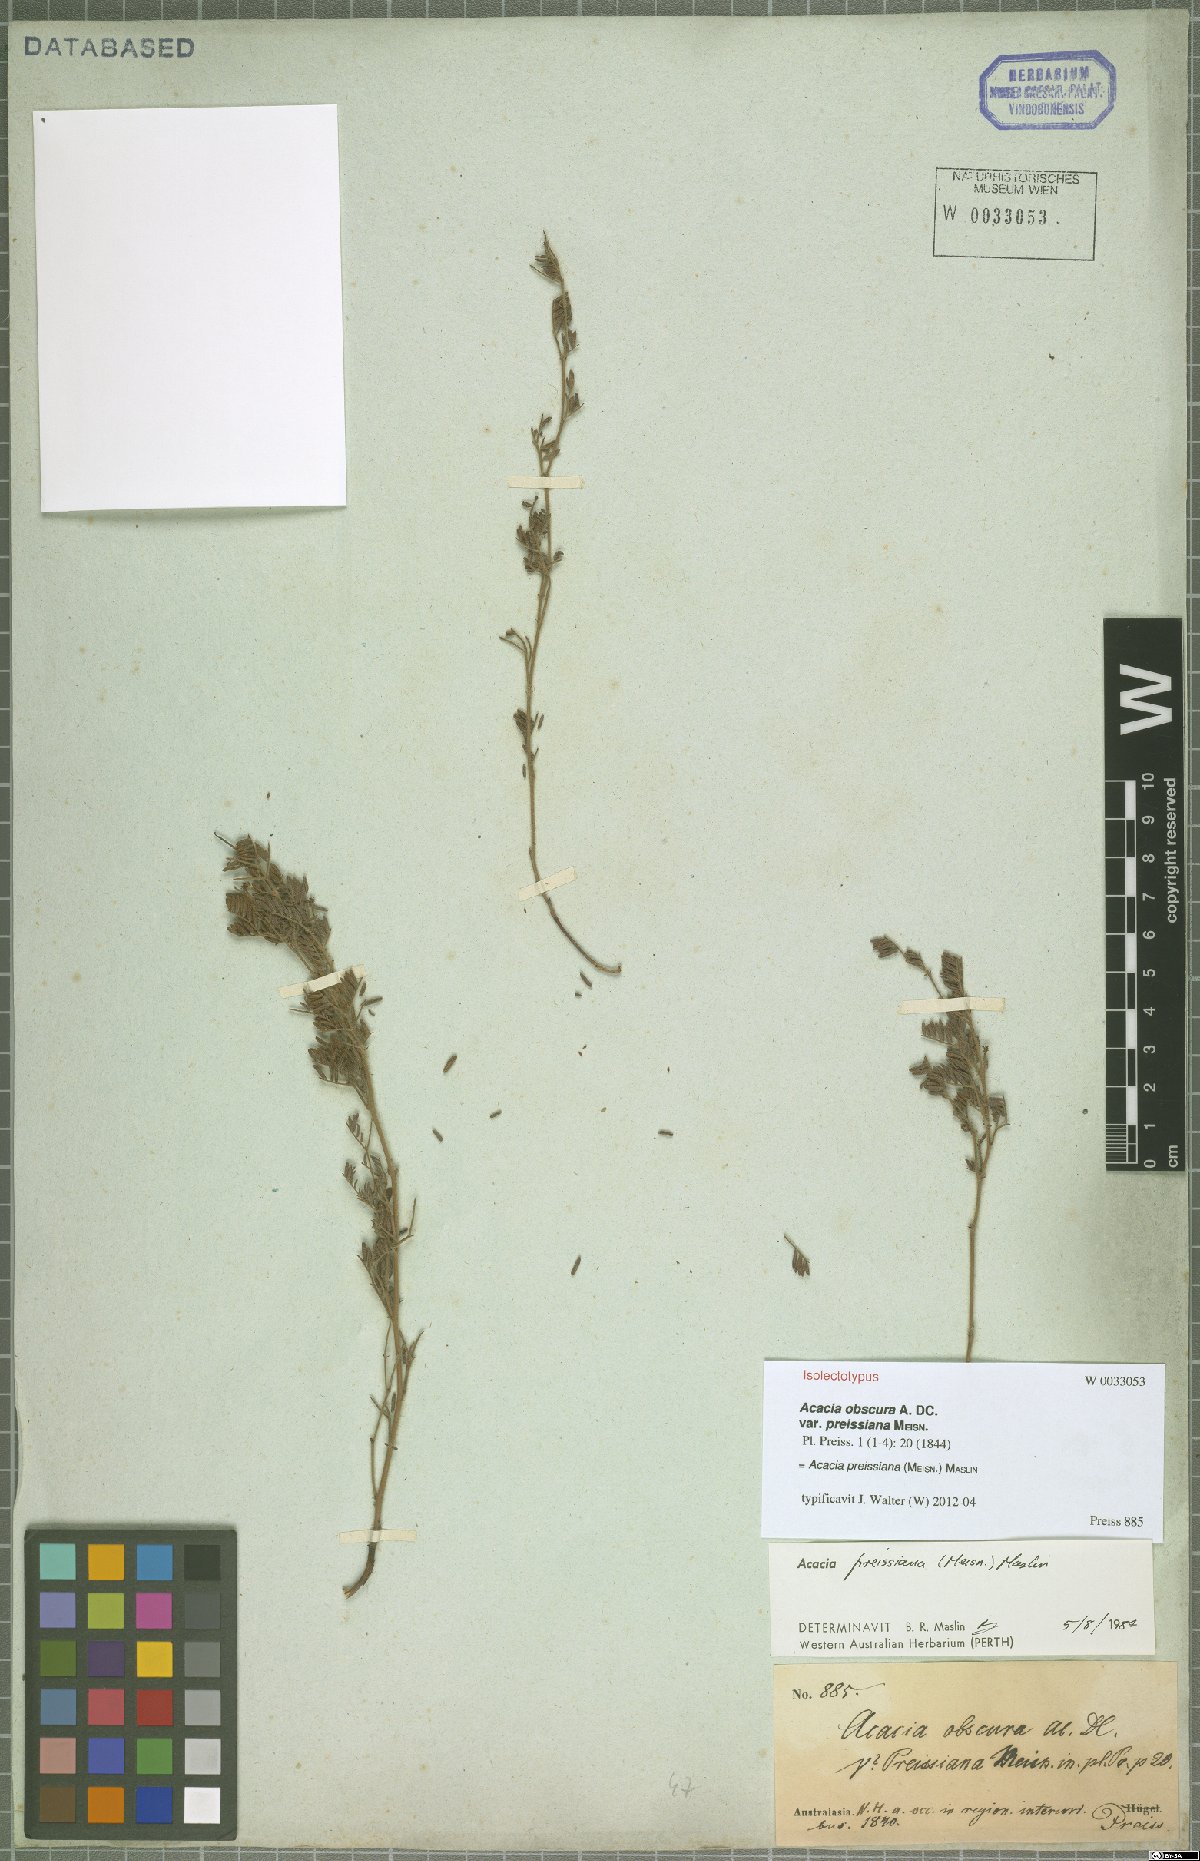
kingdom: Plantae
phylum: Tracheophyta
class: Magnoliopsida
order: Fabales
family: Fabaceae
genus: Acacia
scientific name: Acacia preissiana
